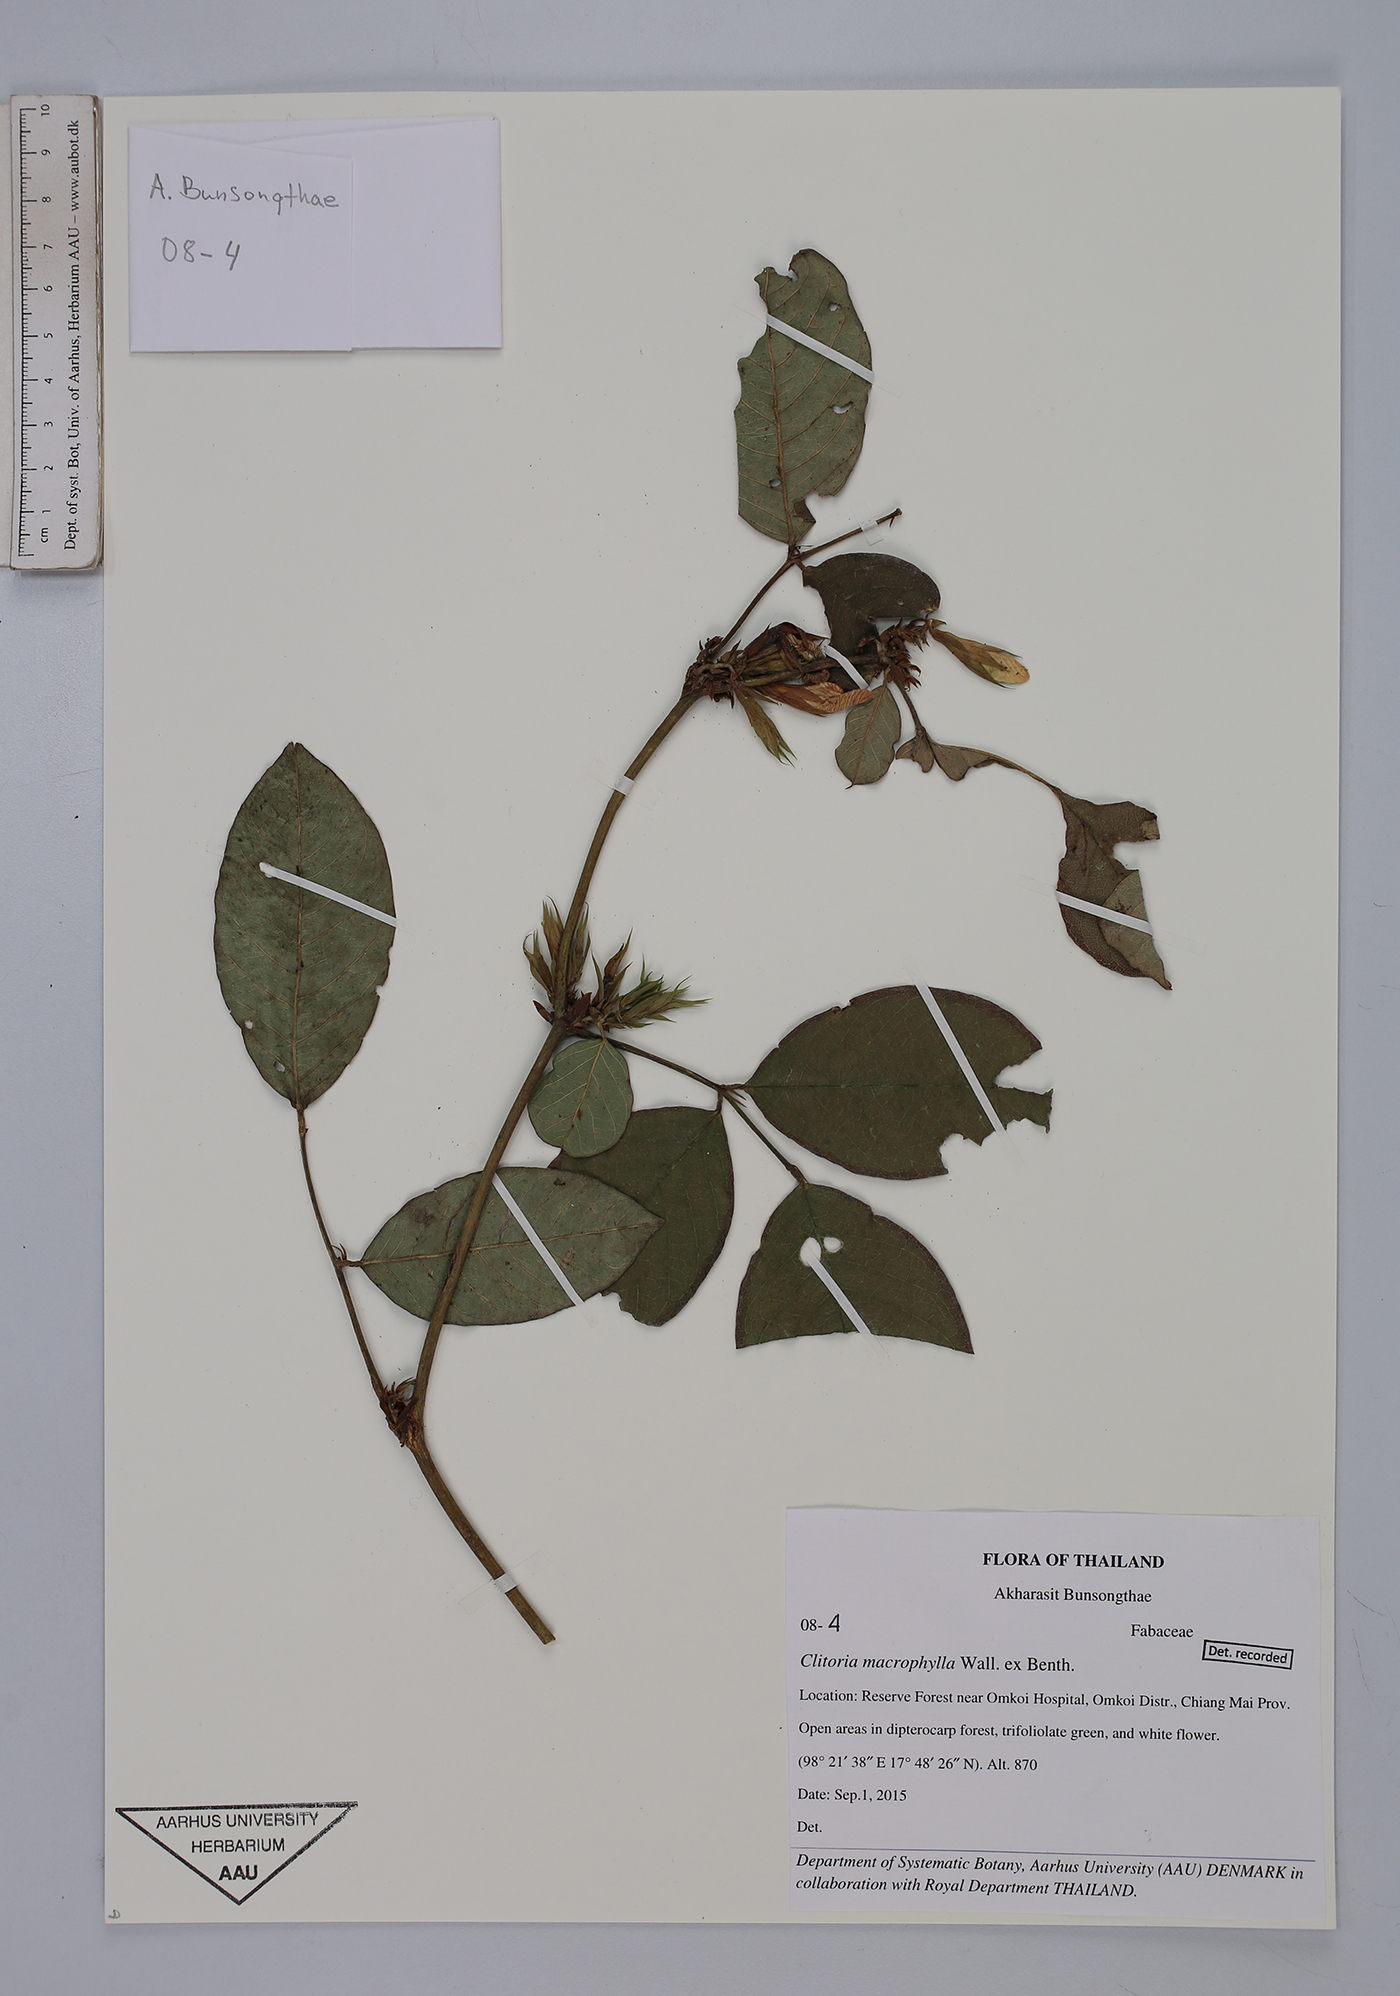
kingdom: Plantae
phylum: Tracheophyta
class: Magnoliopsida
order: Fabales
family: Fabaceae
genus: Clitoria
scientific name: Clitoria macrophylla
